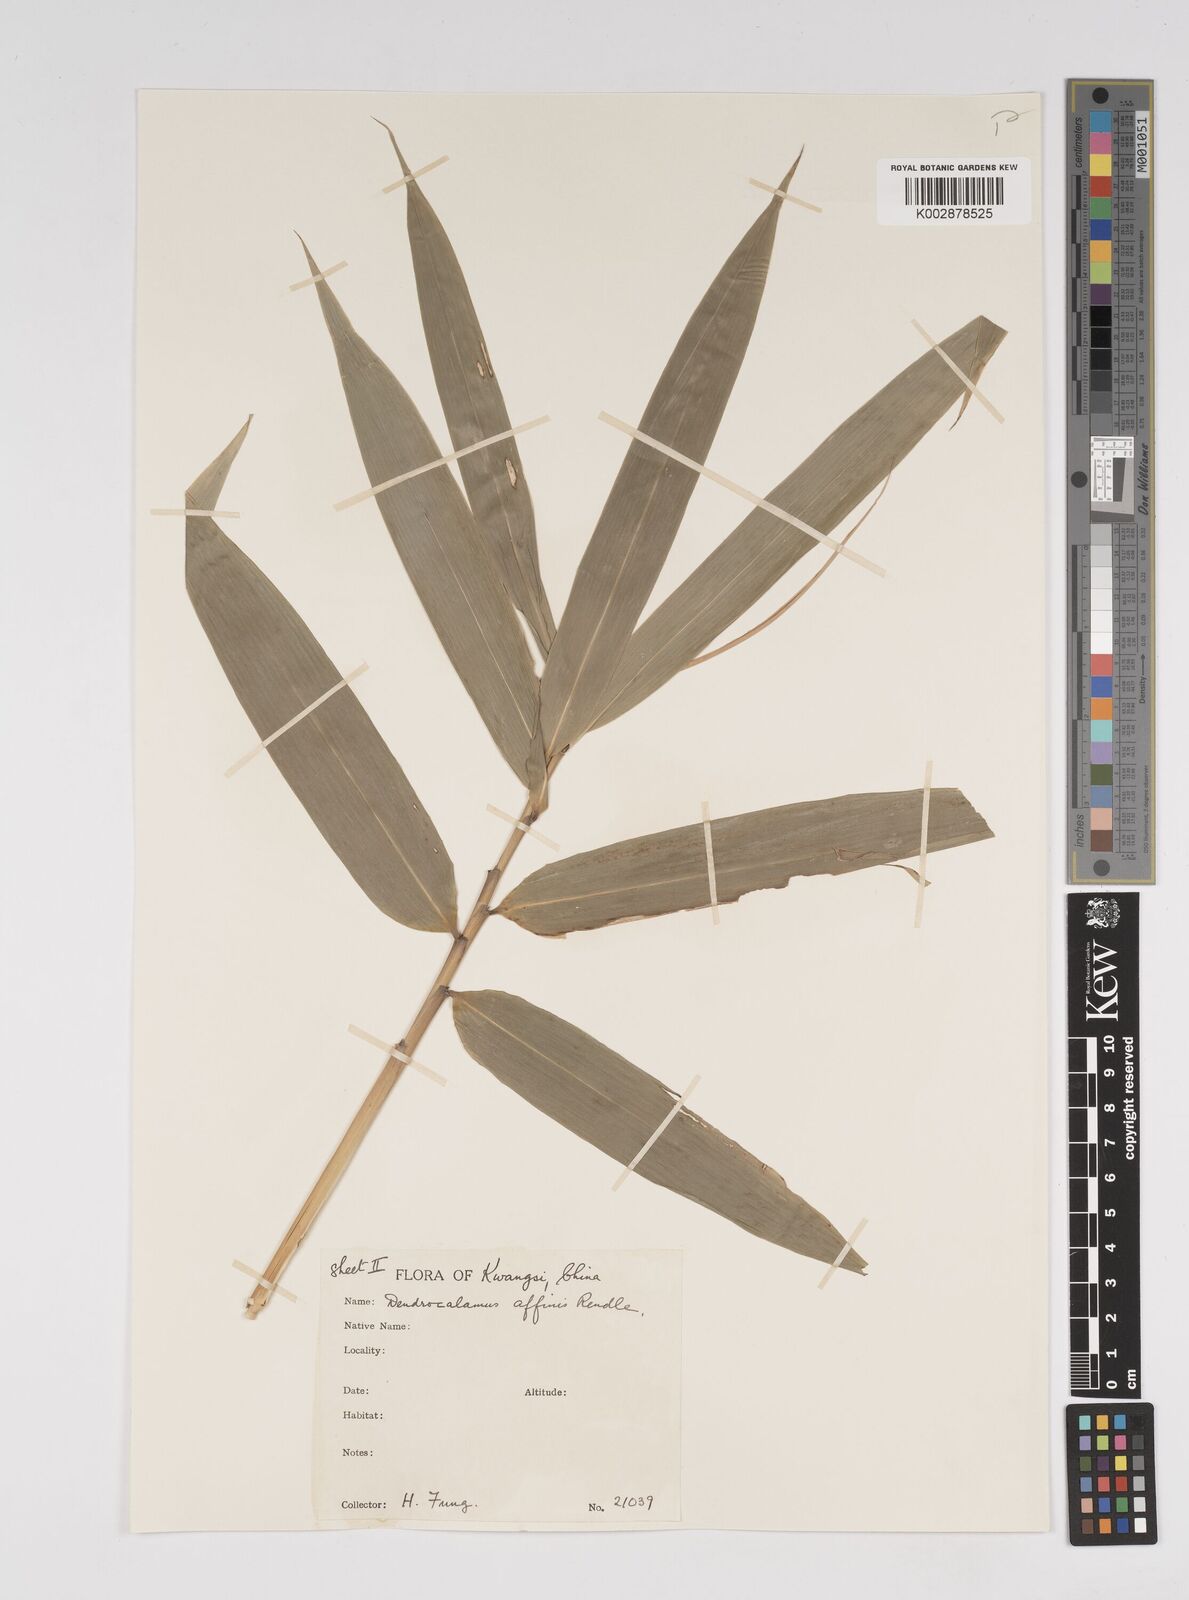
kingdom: Plantae
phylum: Tracheophyta
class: Liliopsida
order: Poales
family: Poaceae
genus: Dendrocalamus
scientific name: Dendrocalamus
